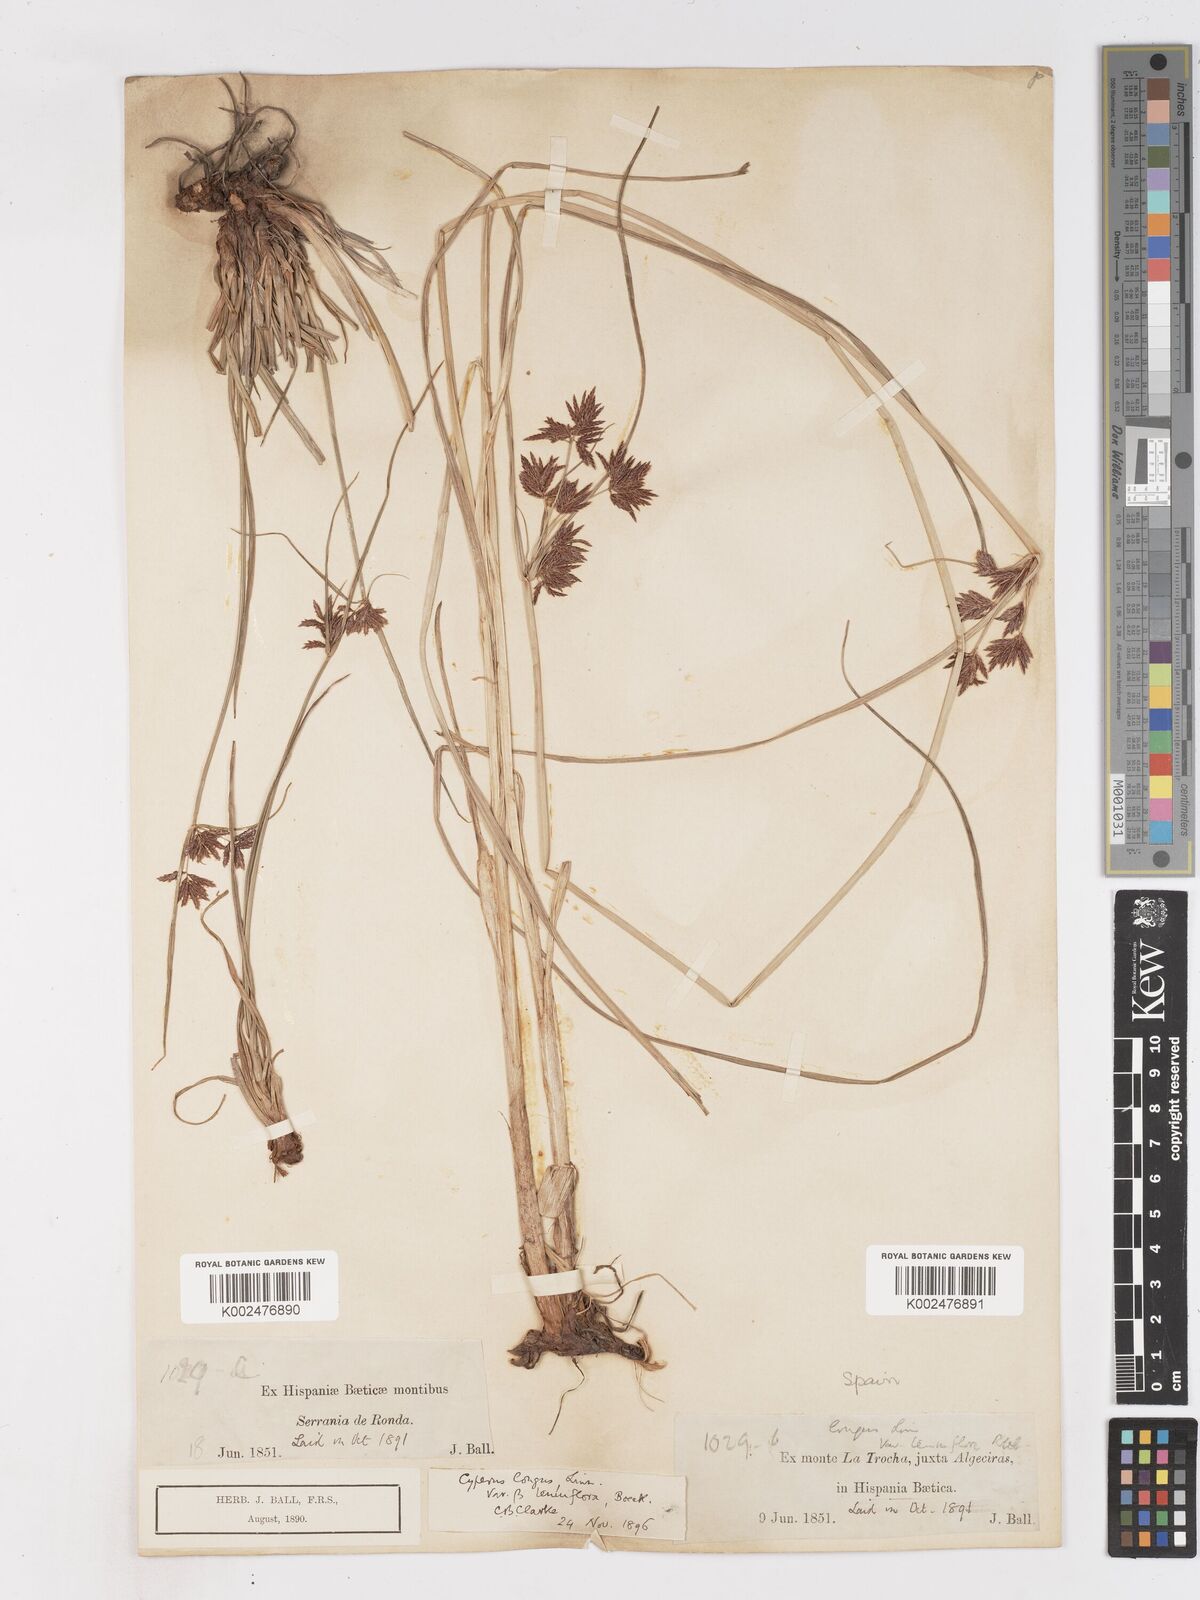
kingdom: Plantae
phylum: Tracheophyta
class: Liliopsida
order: Poales
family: Cyperaceae
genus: Cyperus
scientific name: Cyperus longus
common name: Galingale
